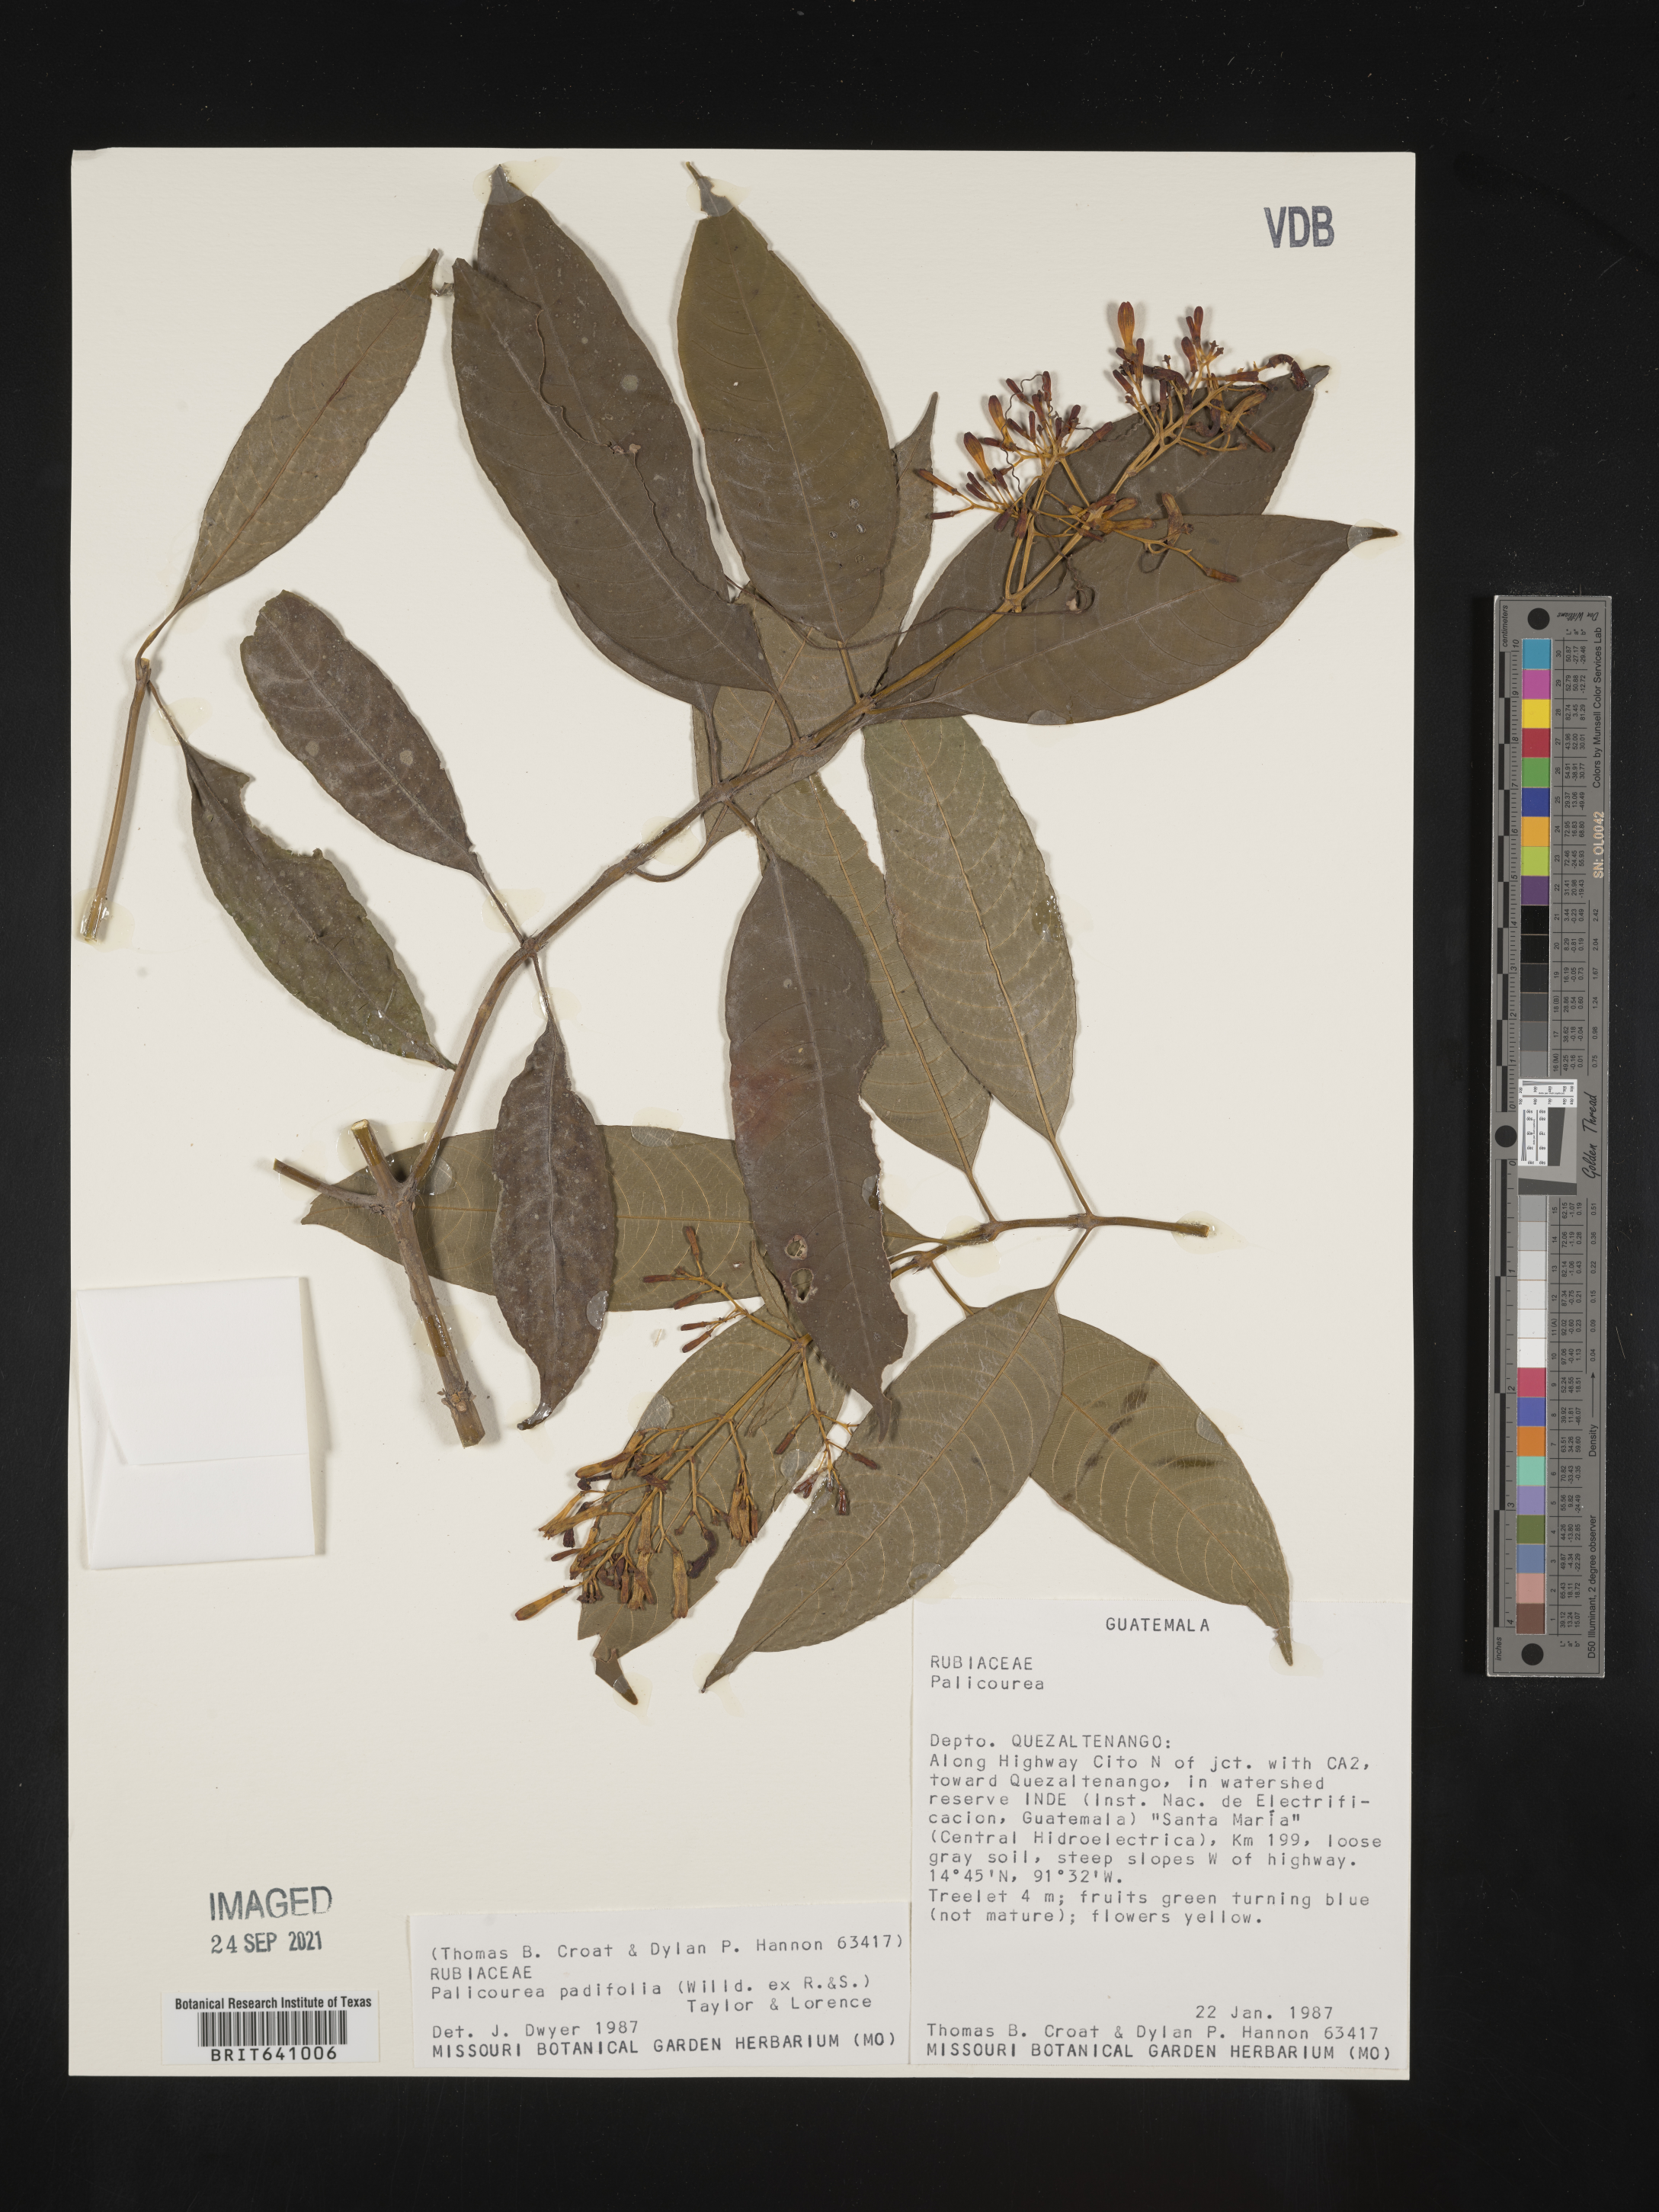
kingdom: Plantae
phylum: Tracheophyta
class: Magnoliopsida
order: Gentianales
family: Rubiaceae
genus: Palicourea
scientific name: Palicourea
